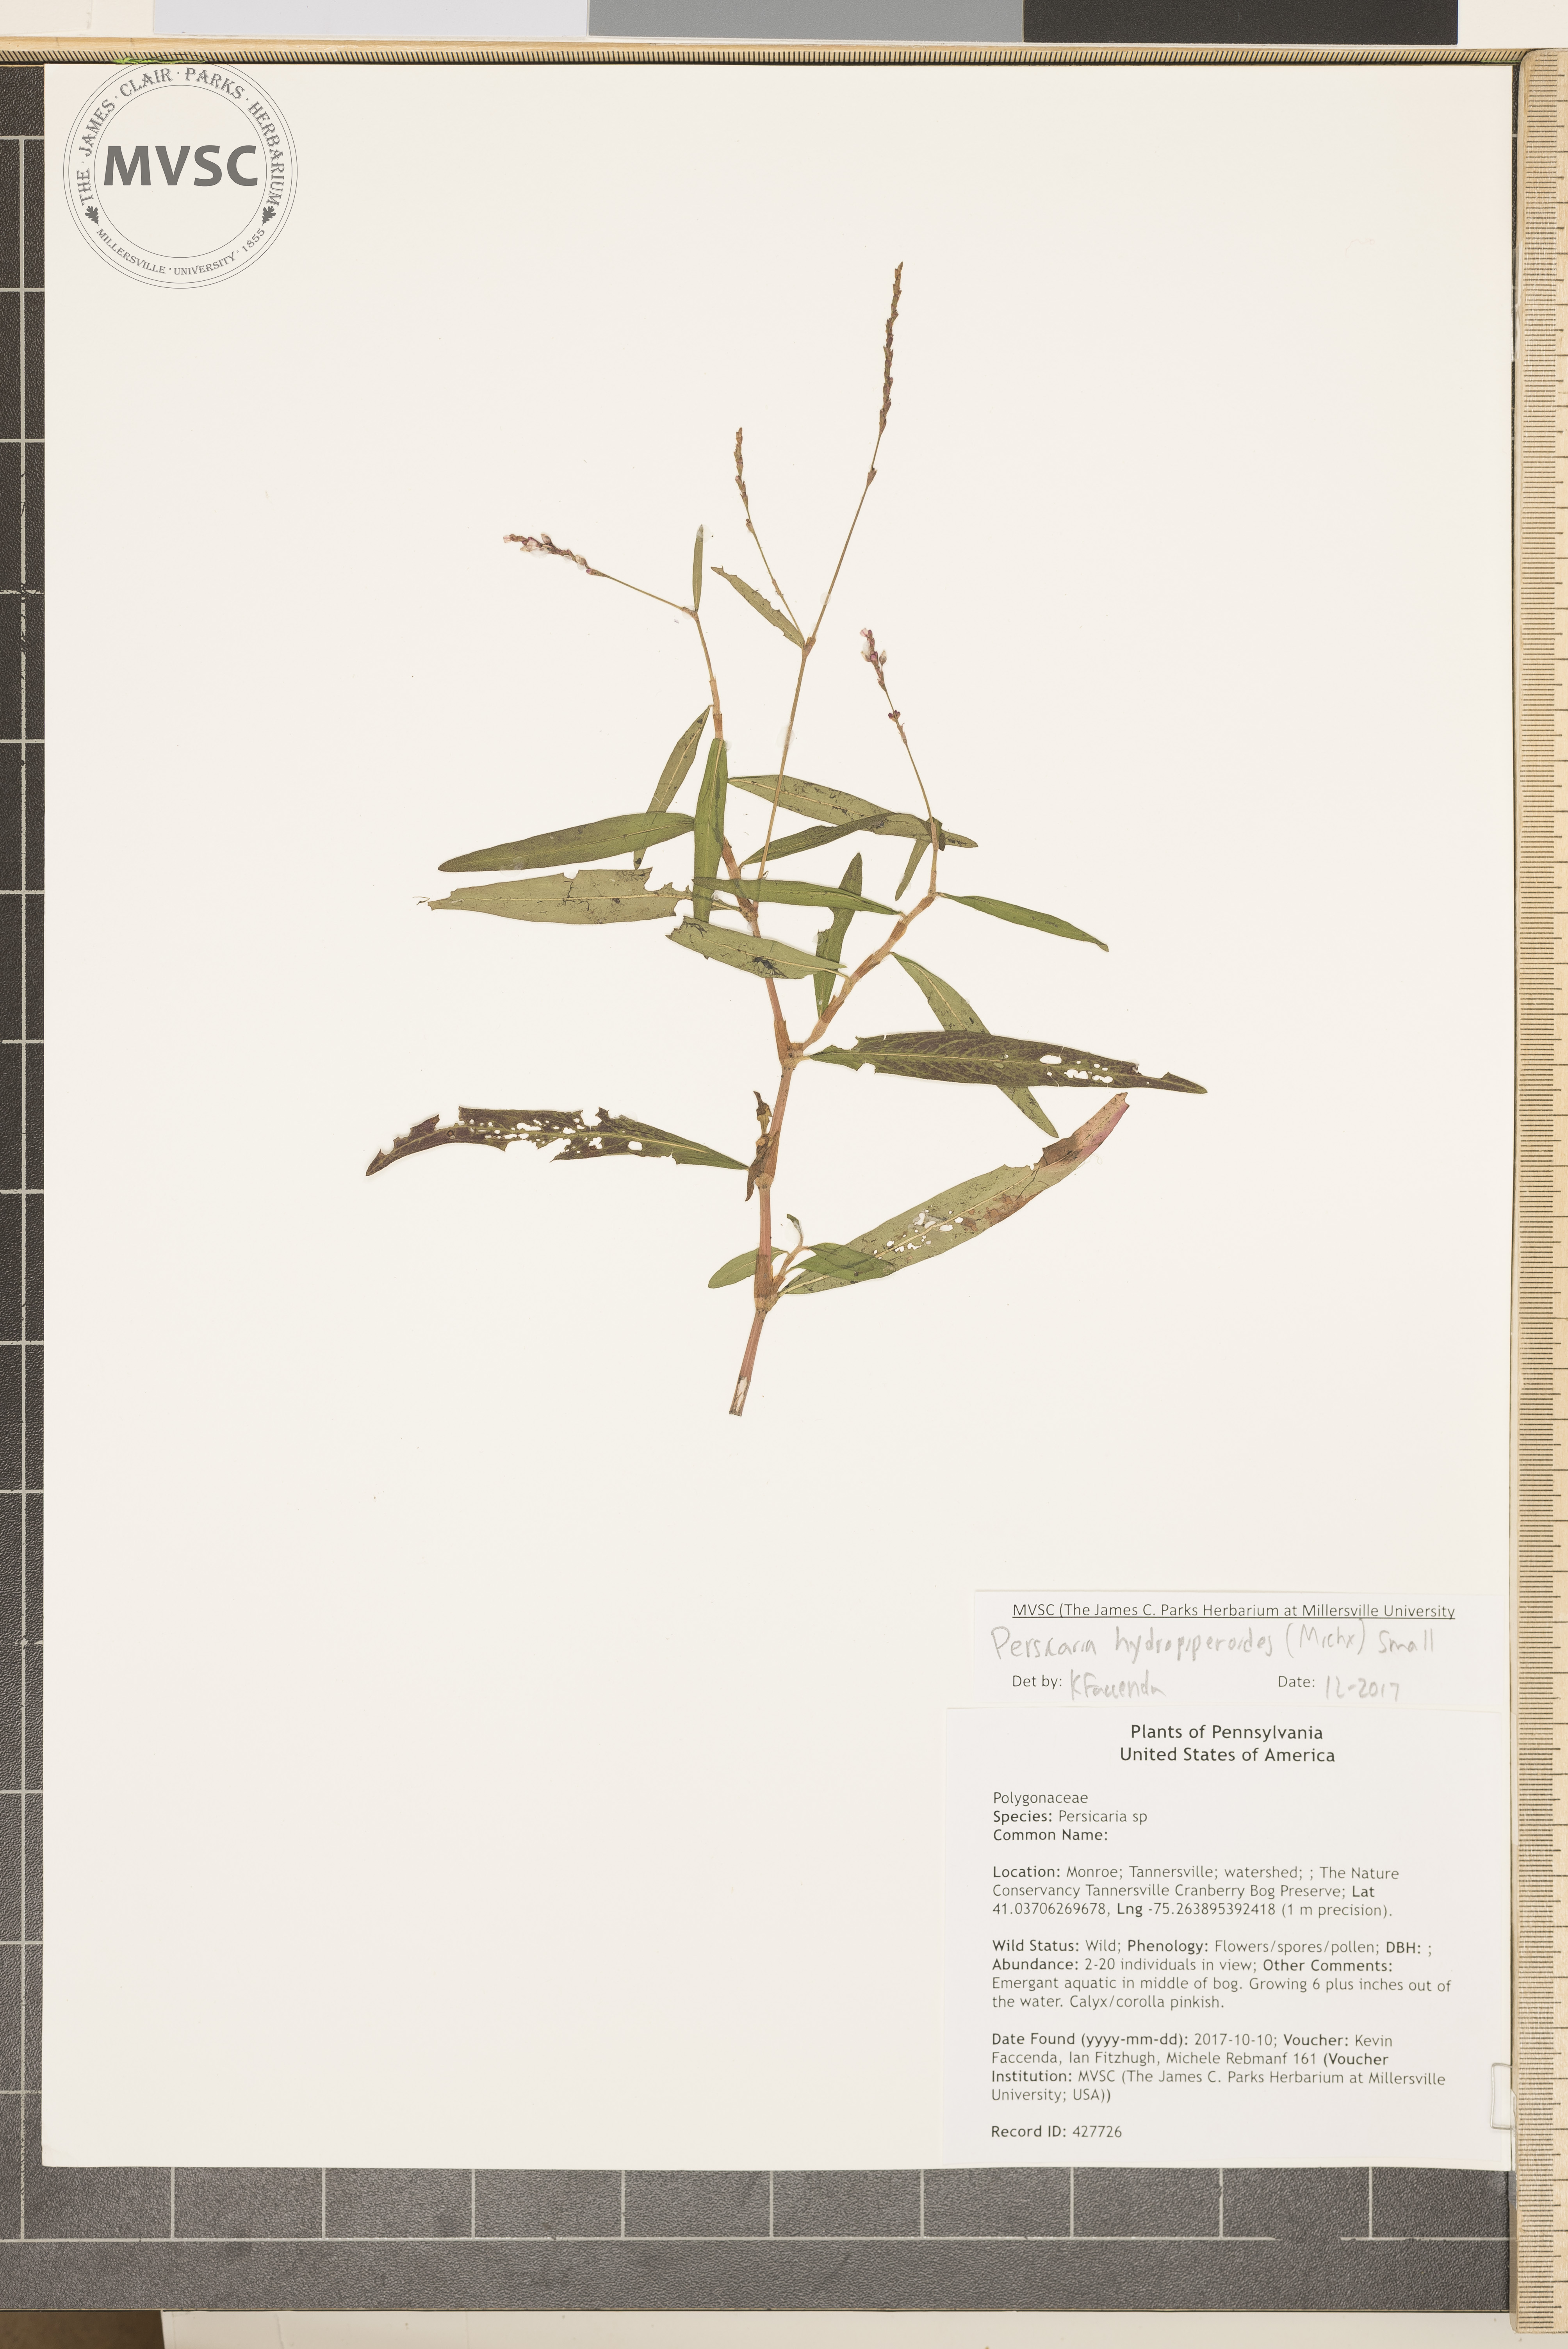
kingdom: Plantae
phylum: Tracheophyta
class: Magnoliopsida
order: Caryophyllales
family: Polygonaceae
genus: Persicaria
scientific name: Persicaria hydropiperoides
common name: Swamp smartweed
